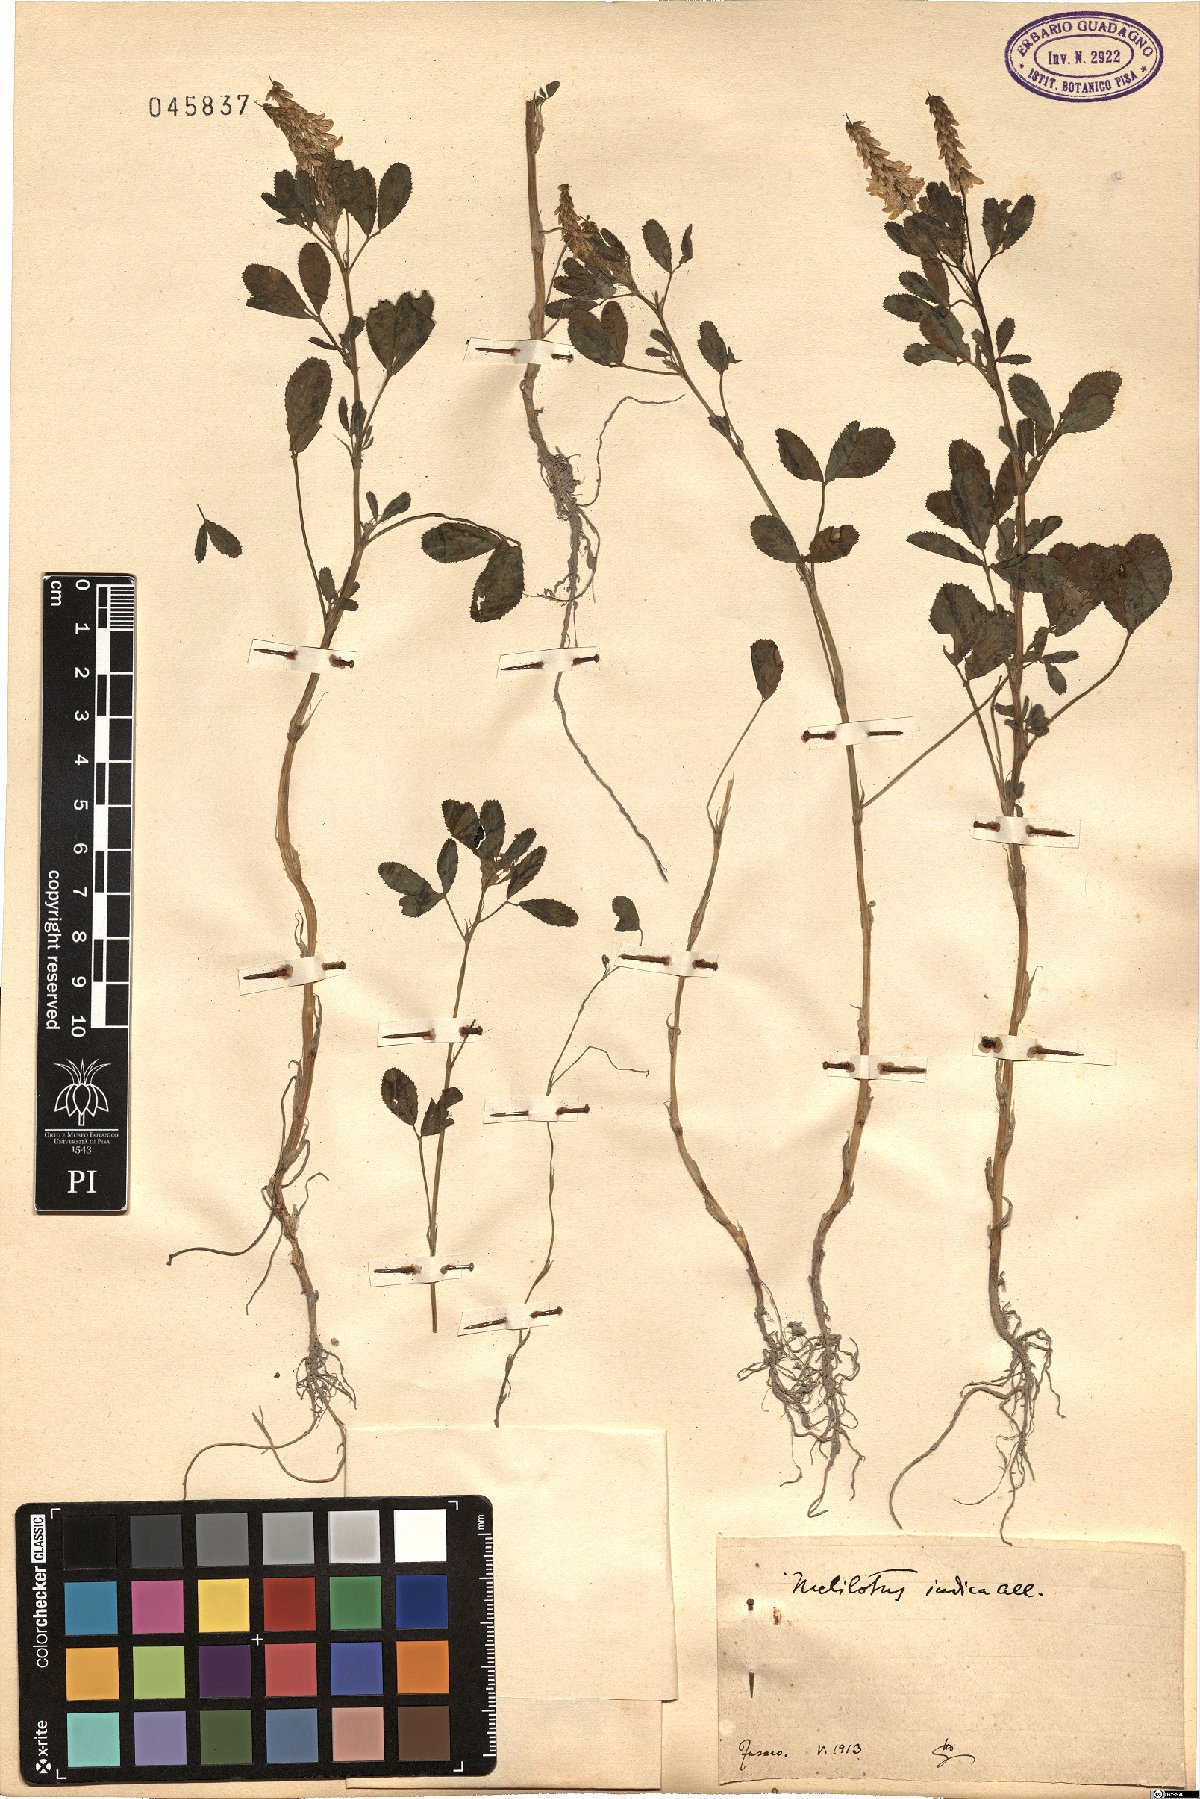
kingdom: Plantae
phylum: Tracheophyta
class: Magnoliopsida
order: Fabales
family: Fabaceae
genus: Melilotus
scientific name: Melilotus indicus
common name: Small melilot
